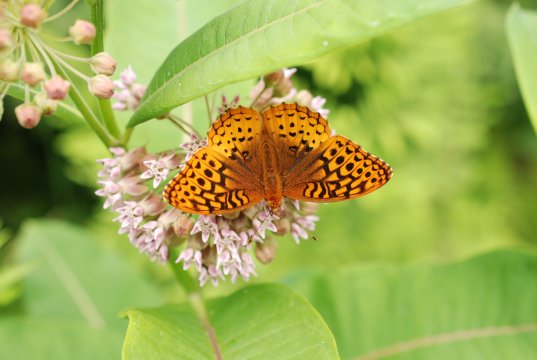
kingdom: Animalia
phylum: Arthropoda
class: Insecta
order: Lepidoptera
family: Nymphalidae
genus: Speyeria
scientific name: Speyeria cybele
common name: Great Spangled Fritillary
